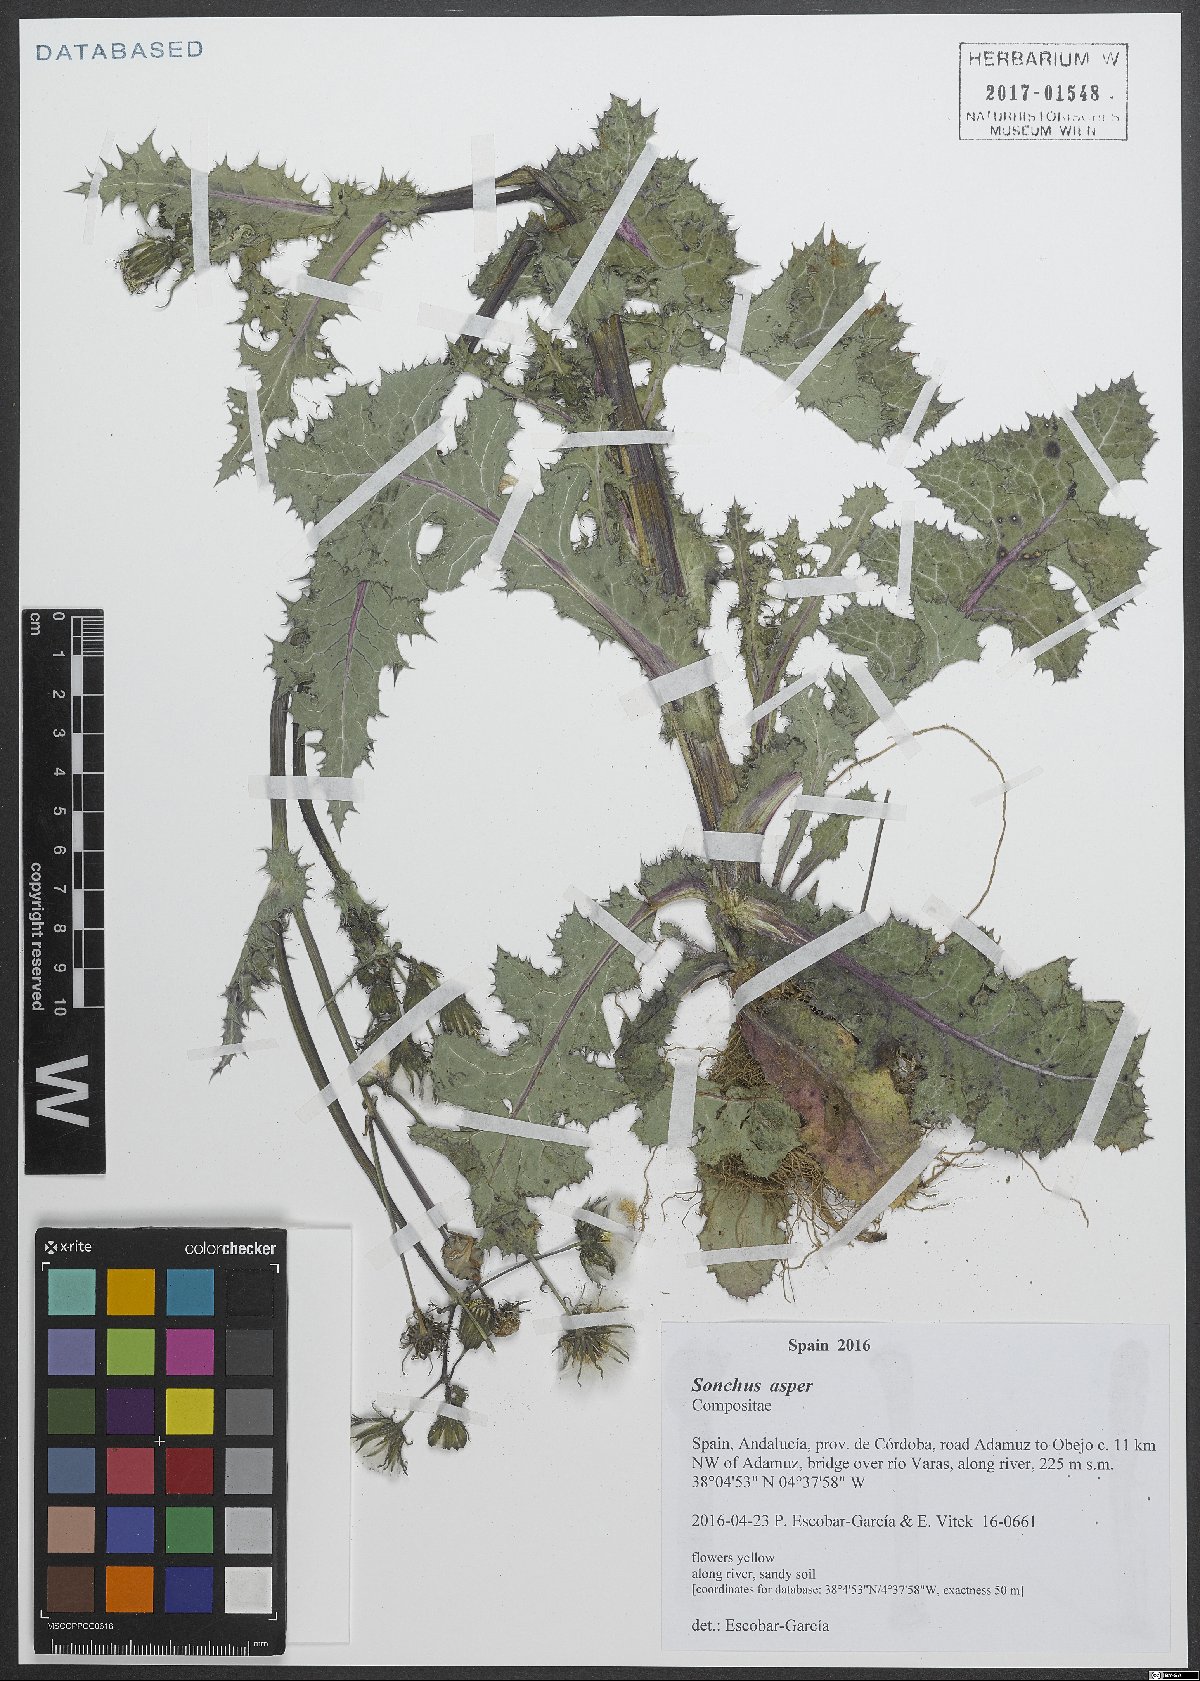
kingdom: Plantae
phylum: Tracheophyta
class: Magnoliopsida
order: Asterales
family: Asteraceae
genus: Sonchus
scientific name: Sonchus asper
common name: Prickly sow-thistle
